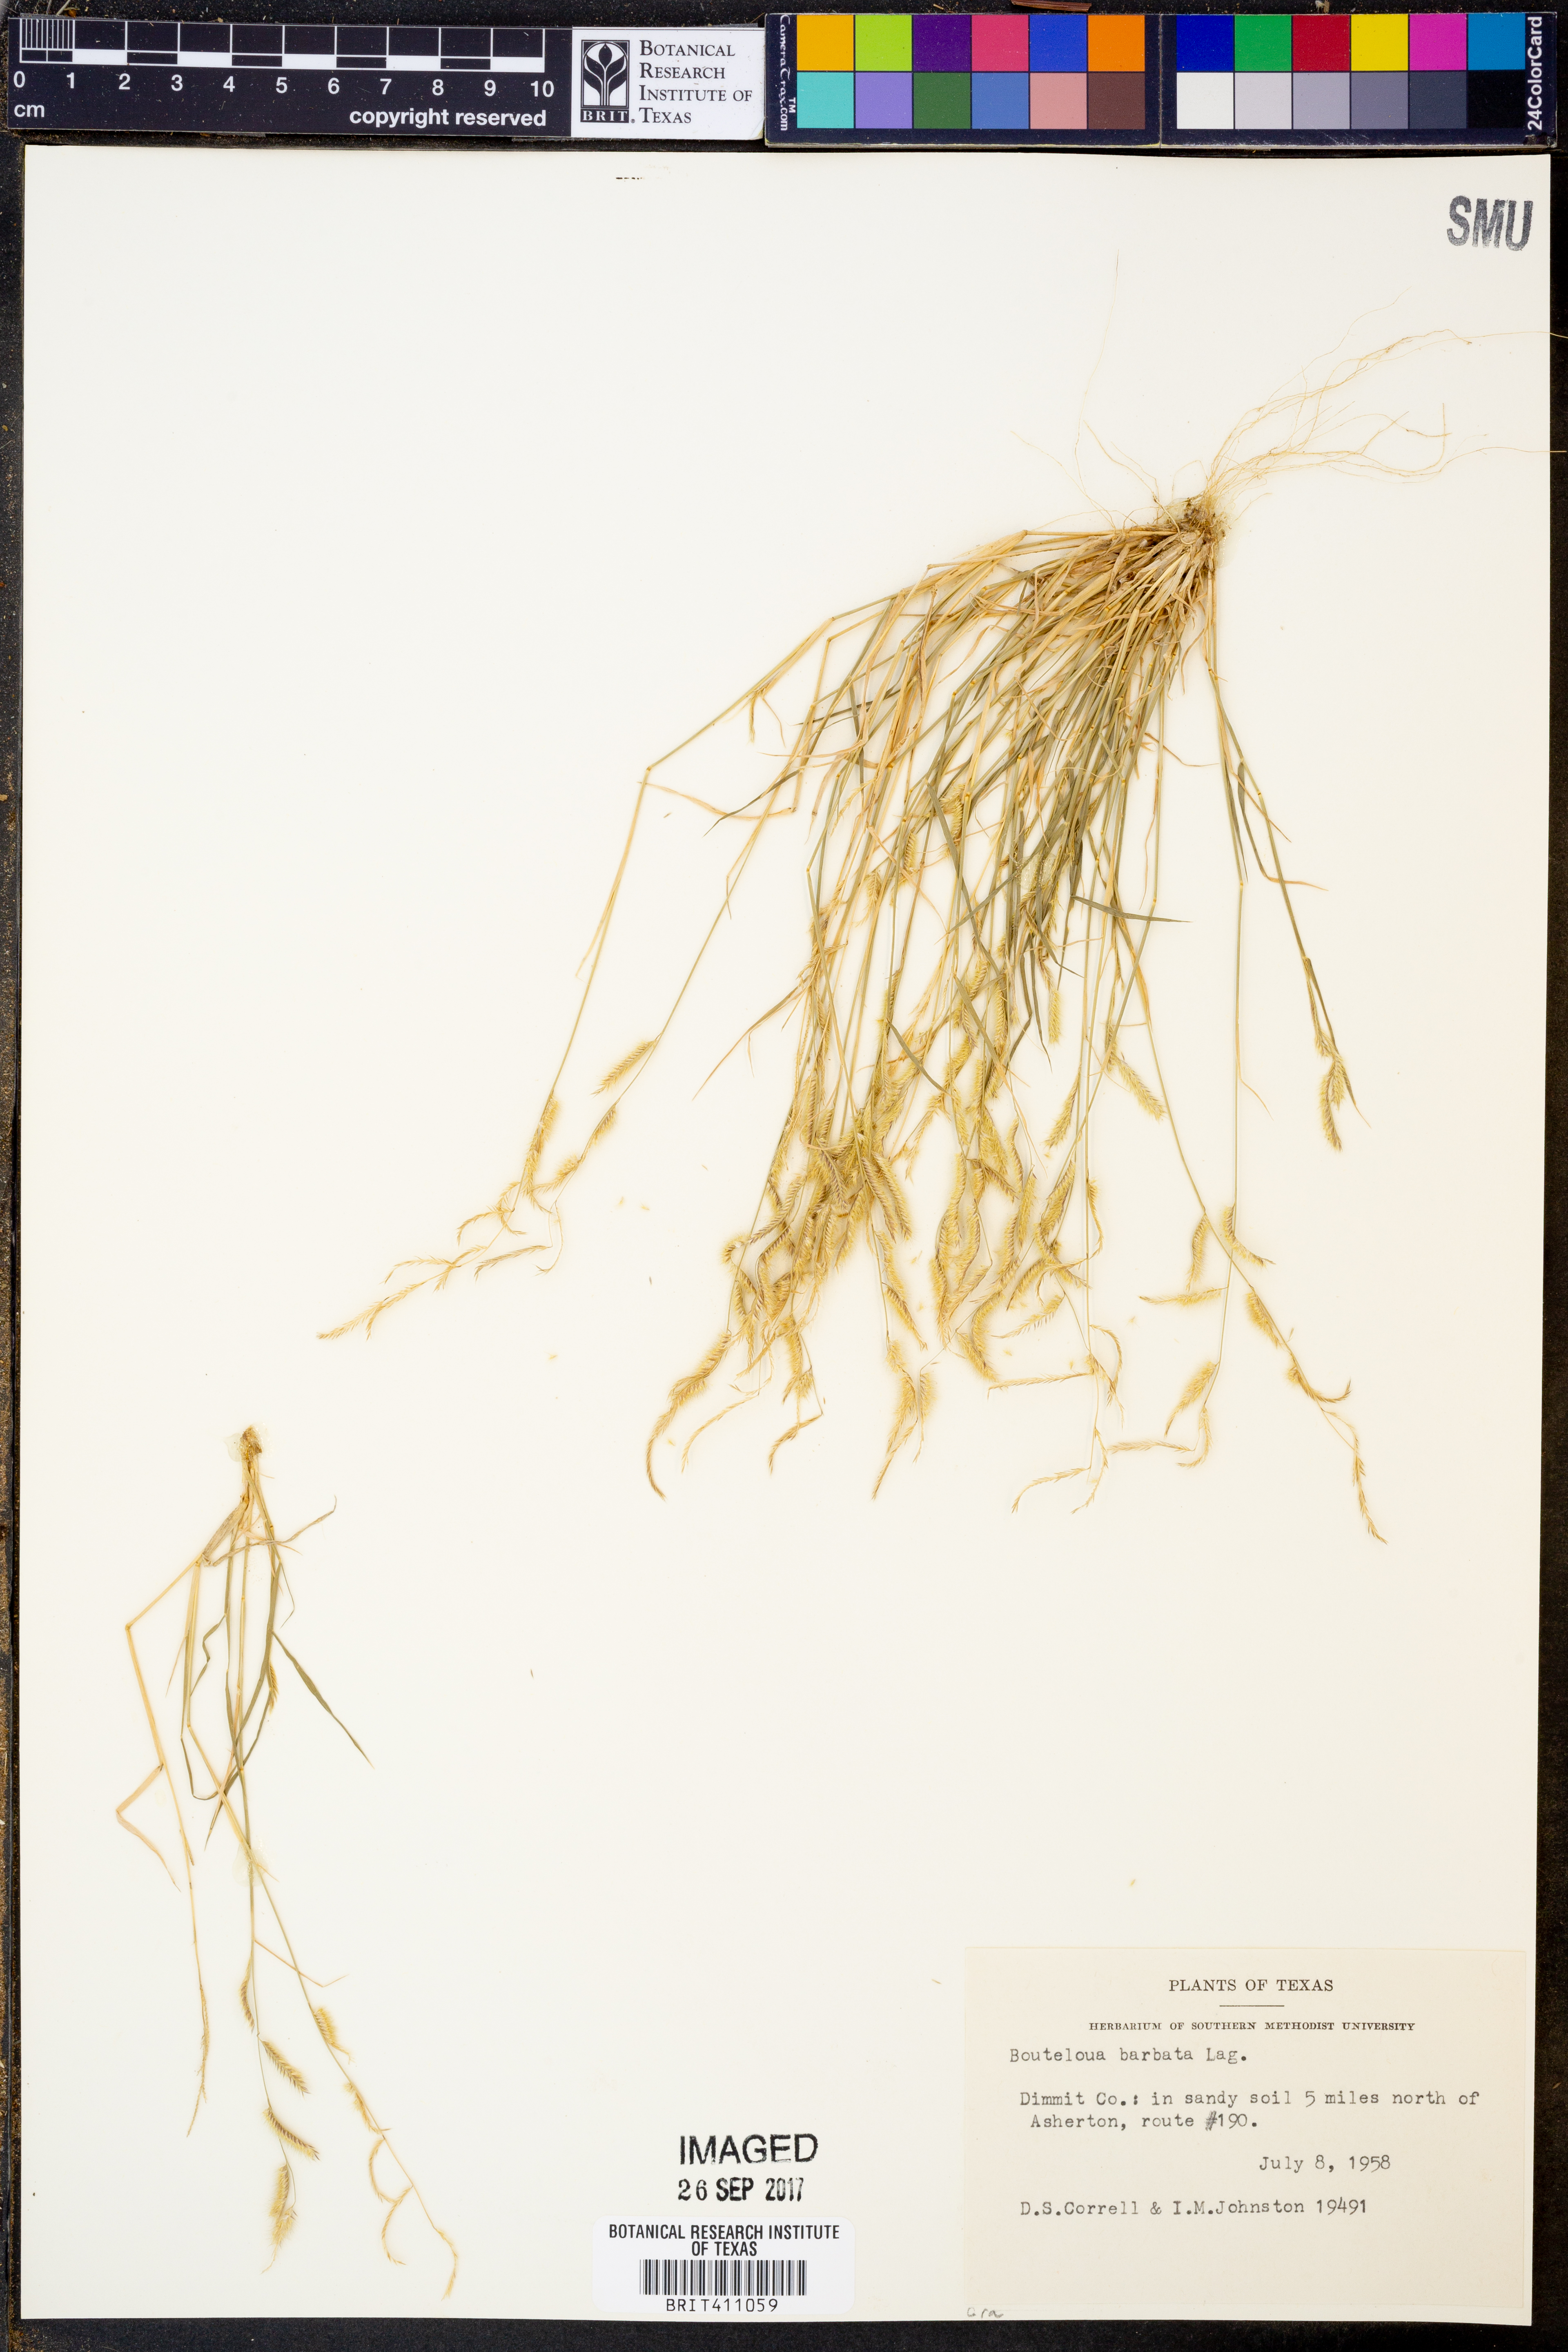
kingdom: Plantae
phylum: Tracheophyta
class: Liliopsida
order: Poales
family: Poaceae
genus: Bouteloua
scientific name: Bouteloua barbata
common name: Six-weeks grama
